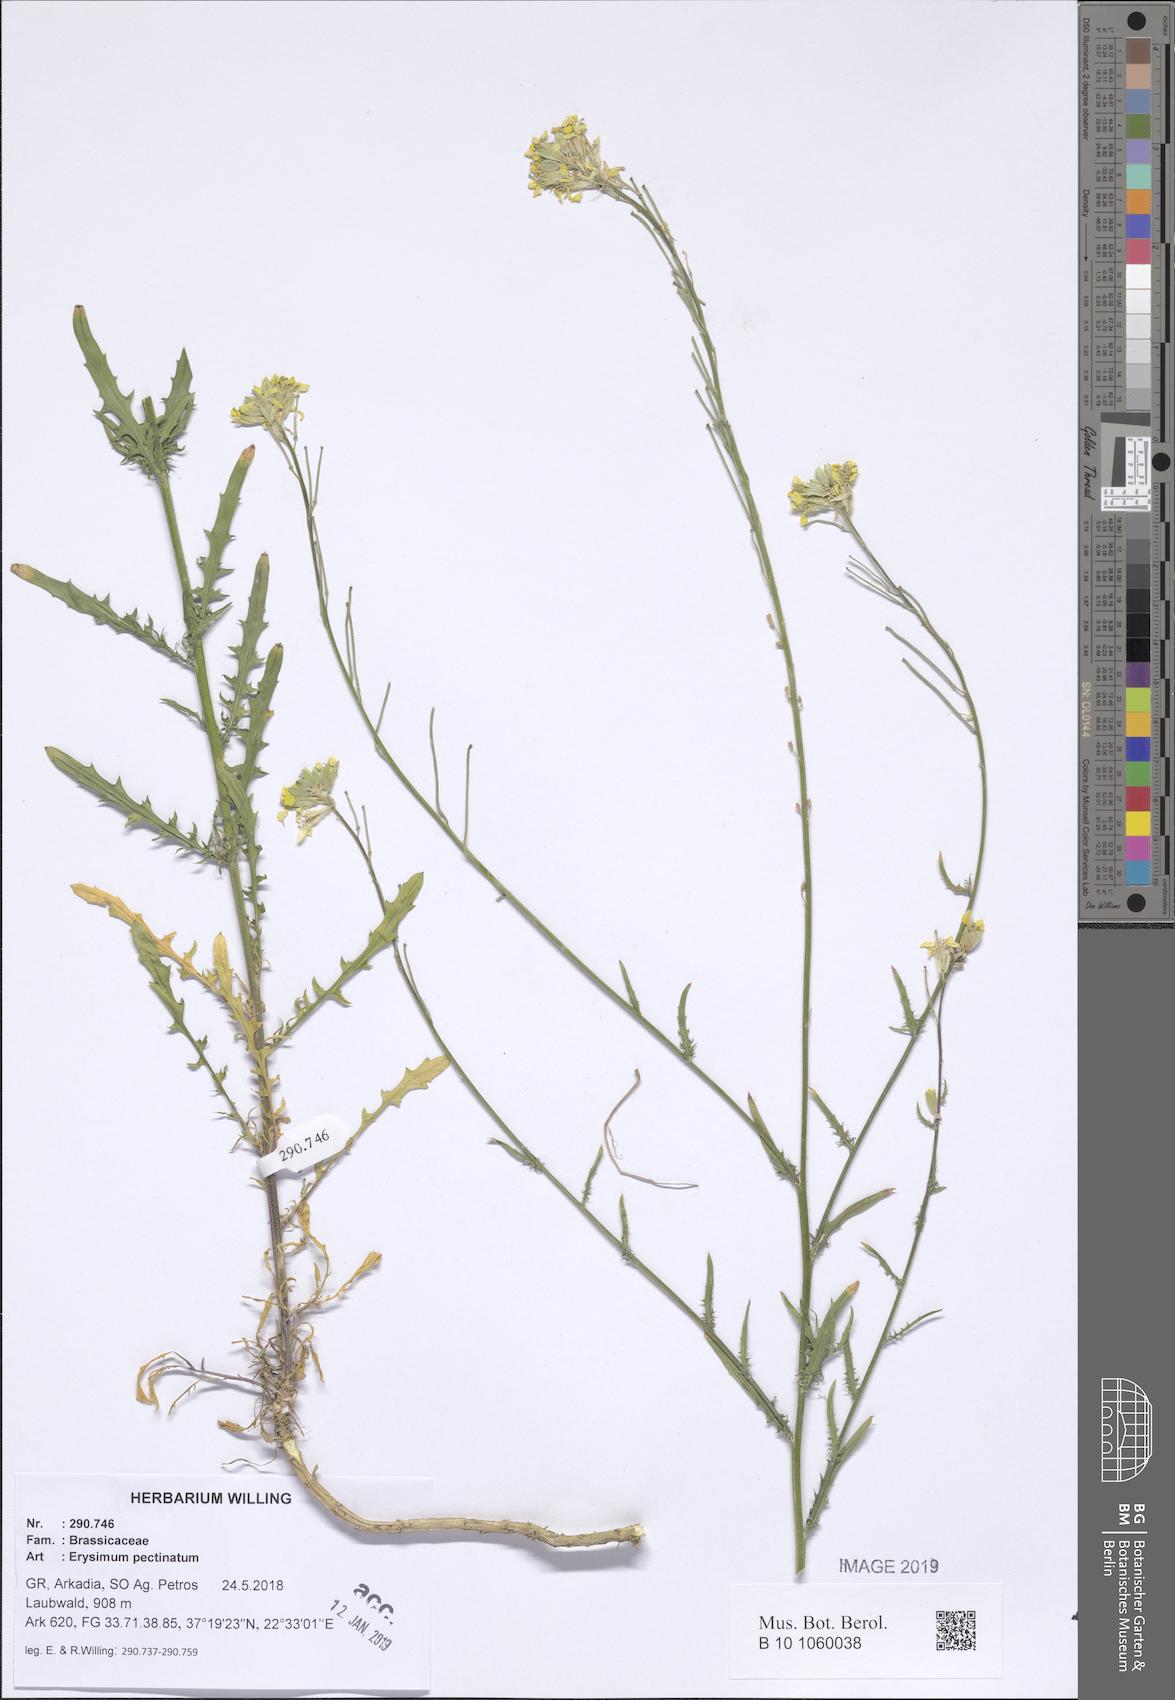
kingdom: Plantae
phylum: Tracheophyta
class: Magnoliopsida
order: Brassicales
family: Brassicaceae
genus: Erysimum
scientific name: Erysimum pectinatum
